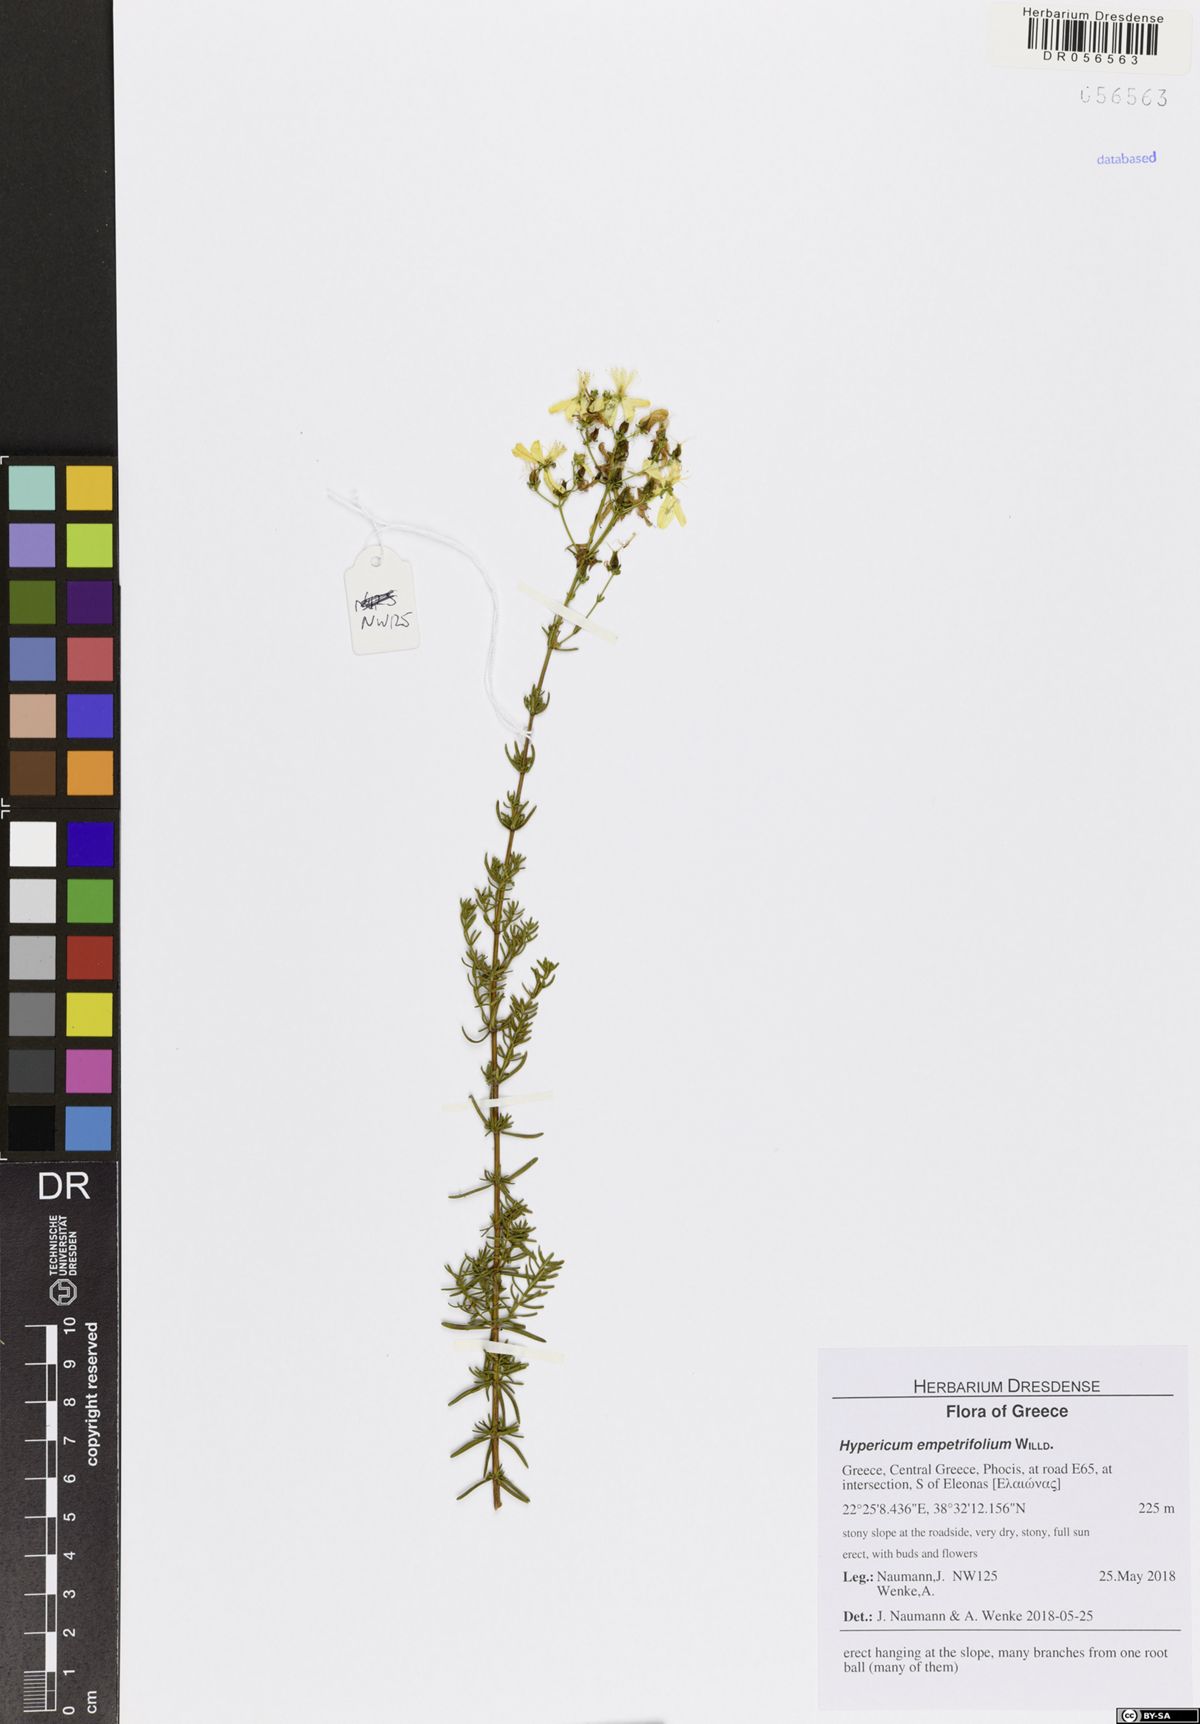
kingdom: Plantae
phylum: Tracheophyta
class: Magnoliopsida
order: Malpighiales
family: Hypericaceae
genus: Hypericum
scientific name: Hypericum empetrifolium
